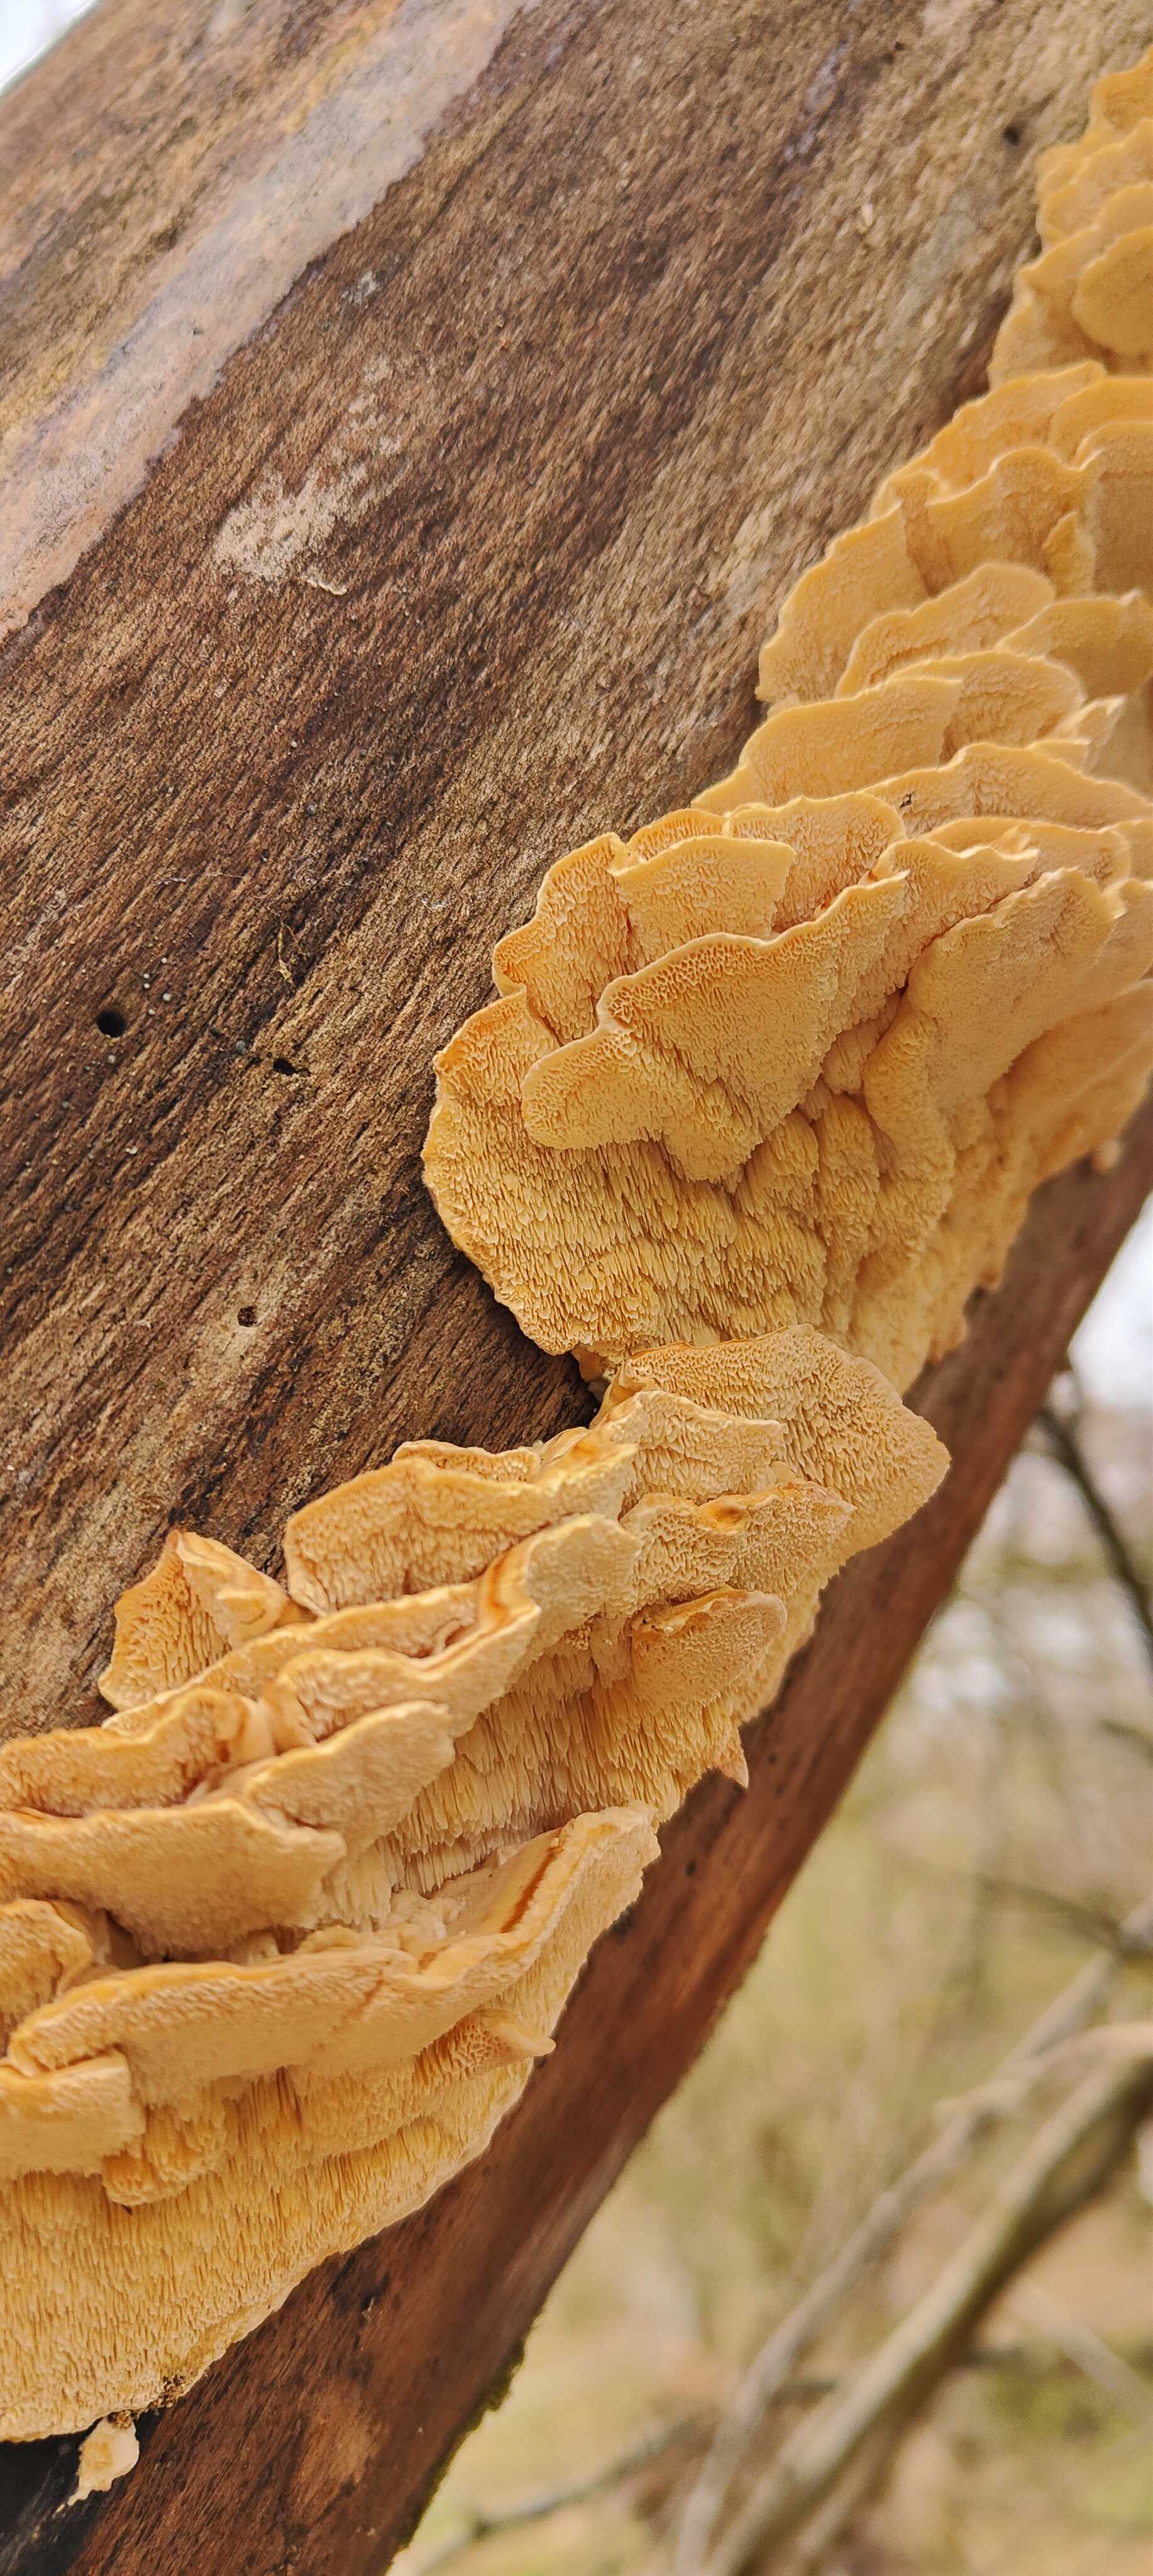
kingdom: Fungi
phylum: Basidiomycota
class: Agaricomycetes
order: Polyporales
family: Polyporaceae
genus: Trametes
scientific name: Trametes
